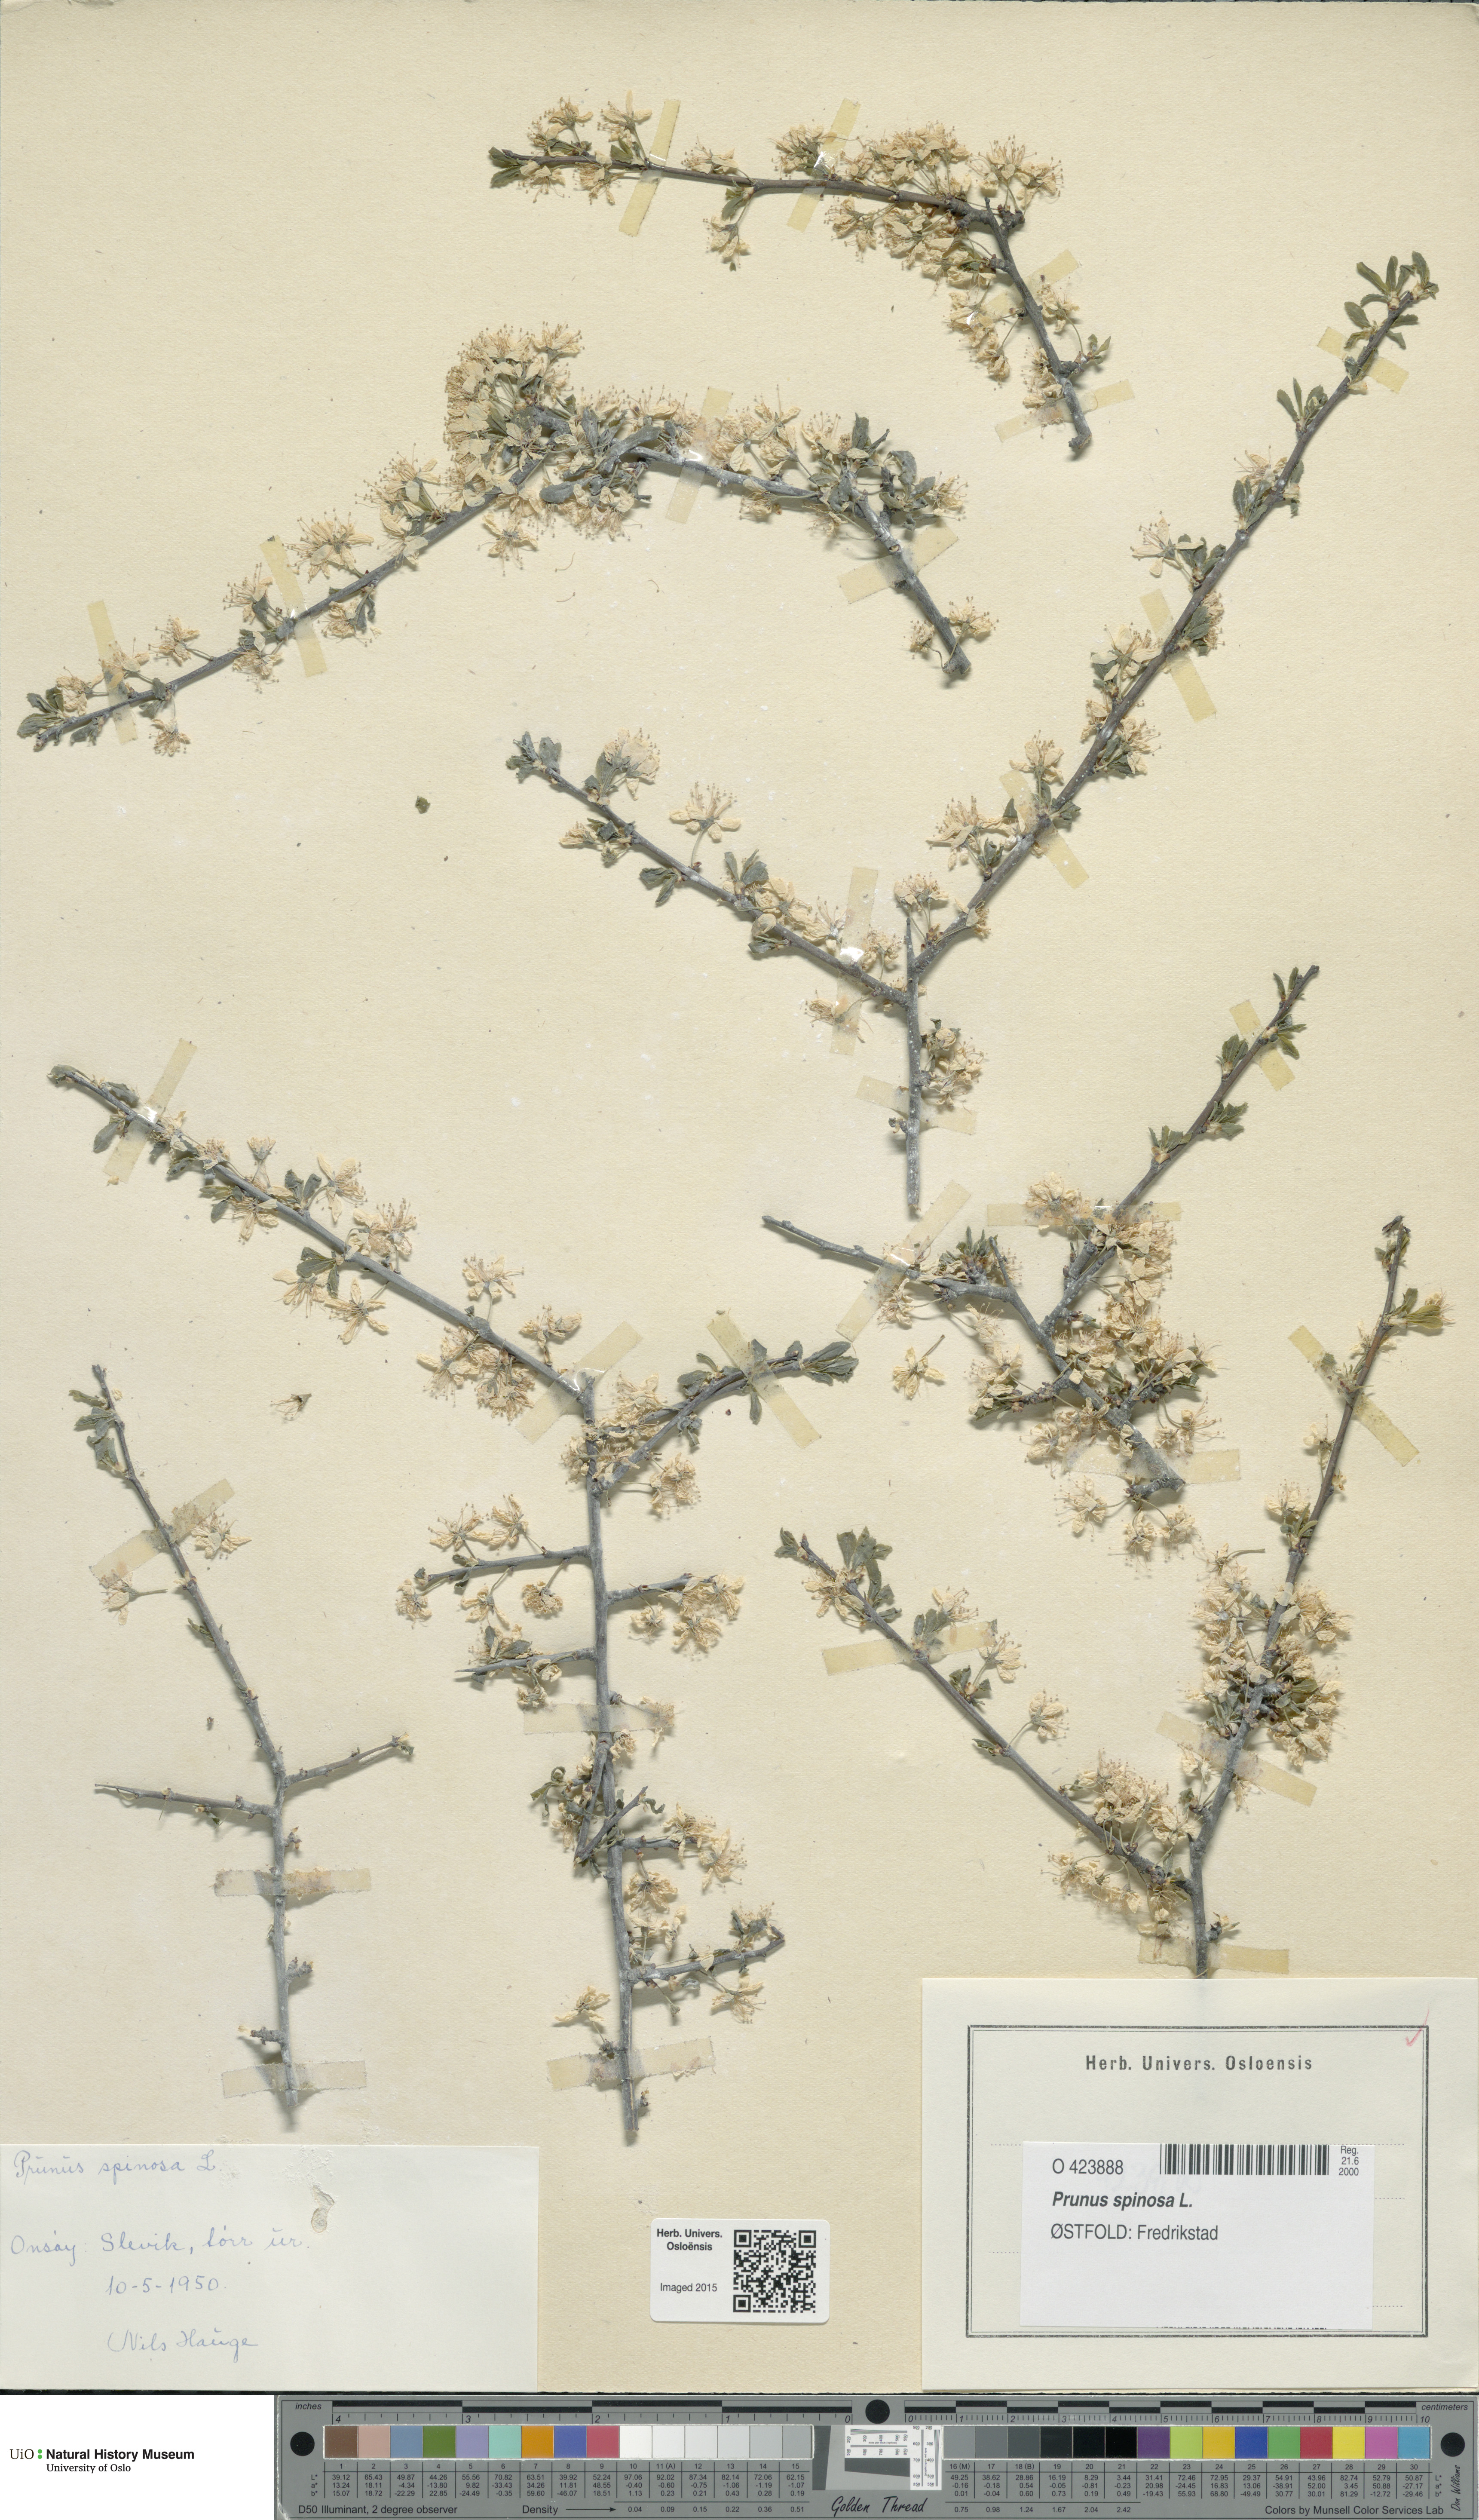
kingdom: Plantae
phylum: Tracheophyta
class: Magnoliopsida
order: Rosales
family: Rosaceae
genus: Prunus
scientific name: Prunus spinosa
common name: Blackthorn
